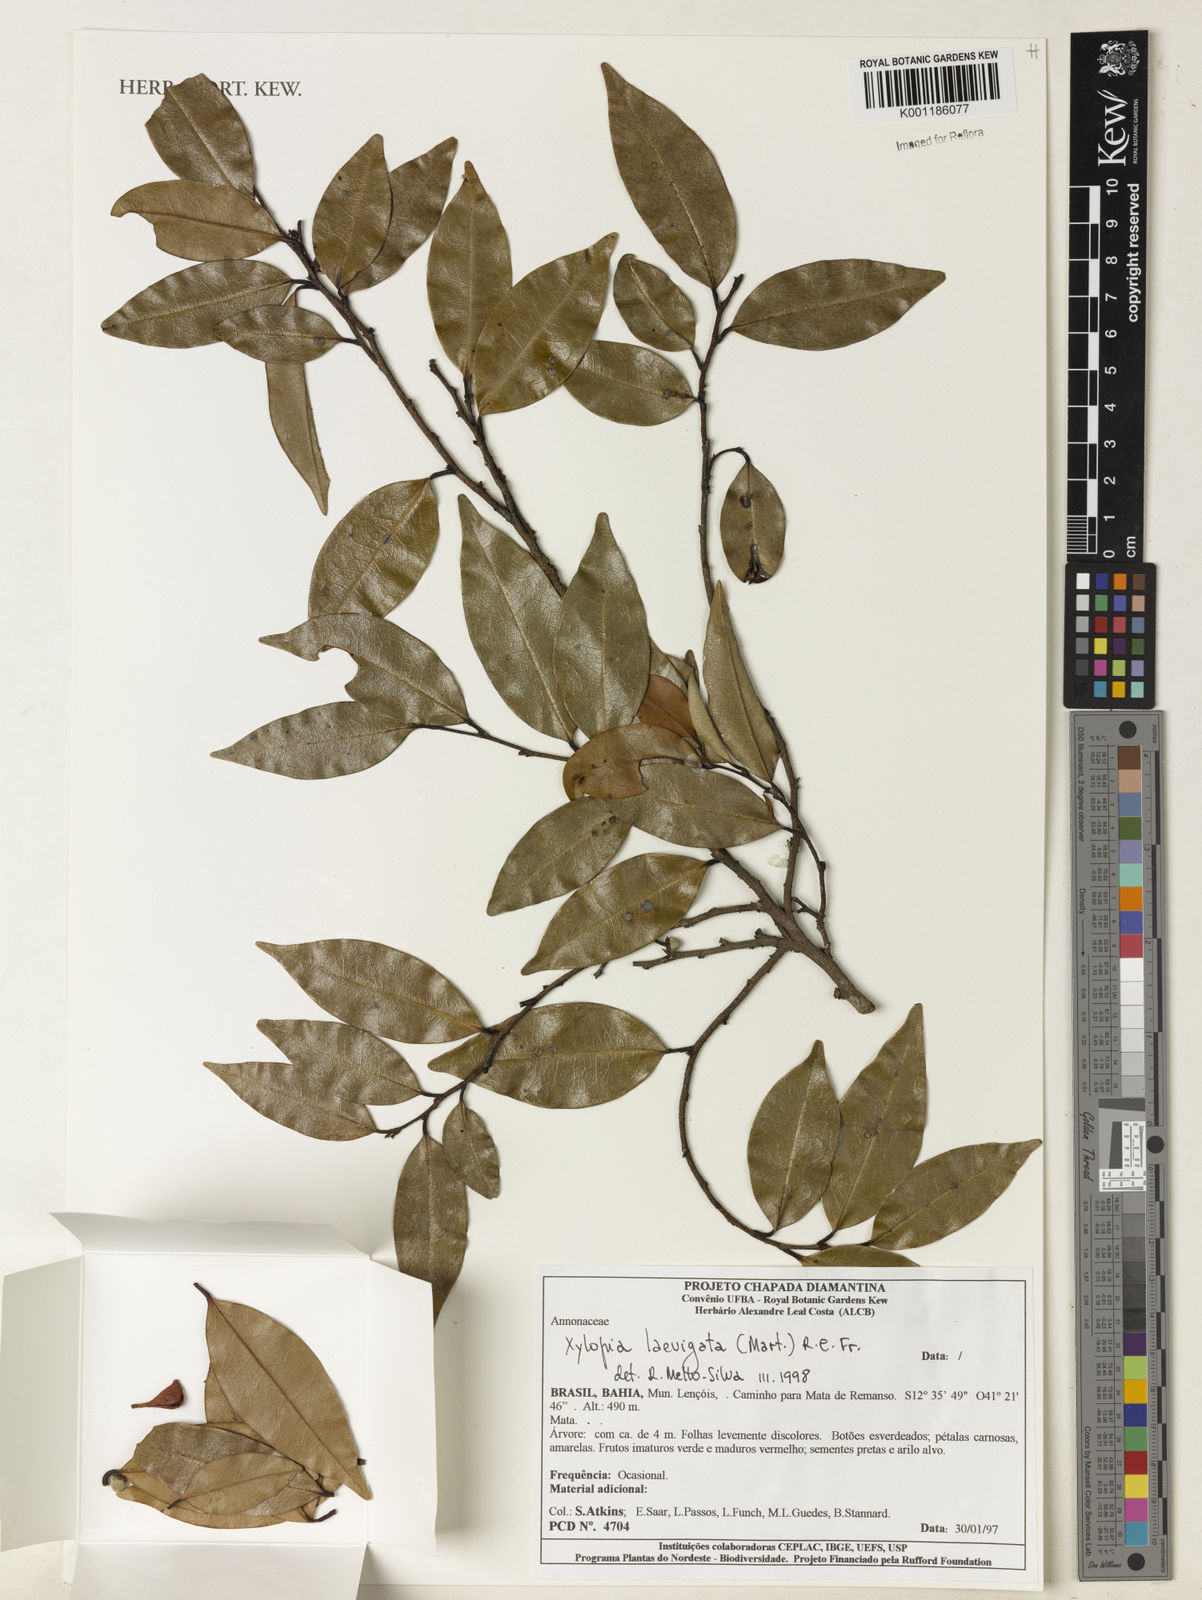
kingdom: Plantae
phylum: Tracheophyta
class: Magnoliopsida
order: Magnoliales
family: Annonaceae
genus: Xylopia
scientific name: Xylopia laevigata
